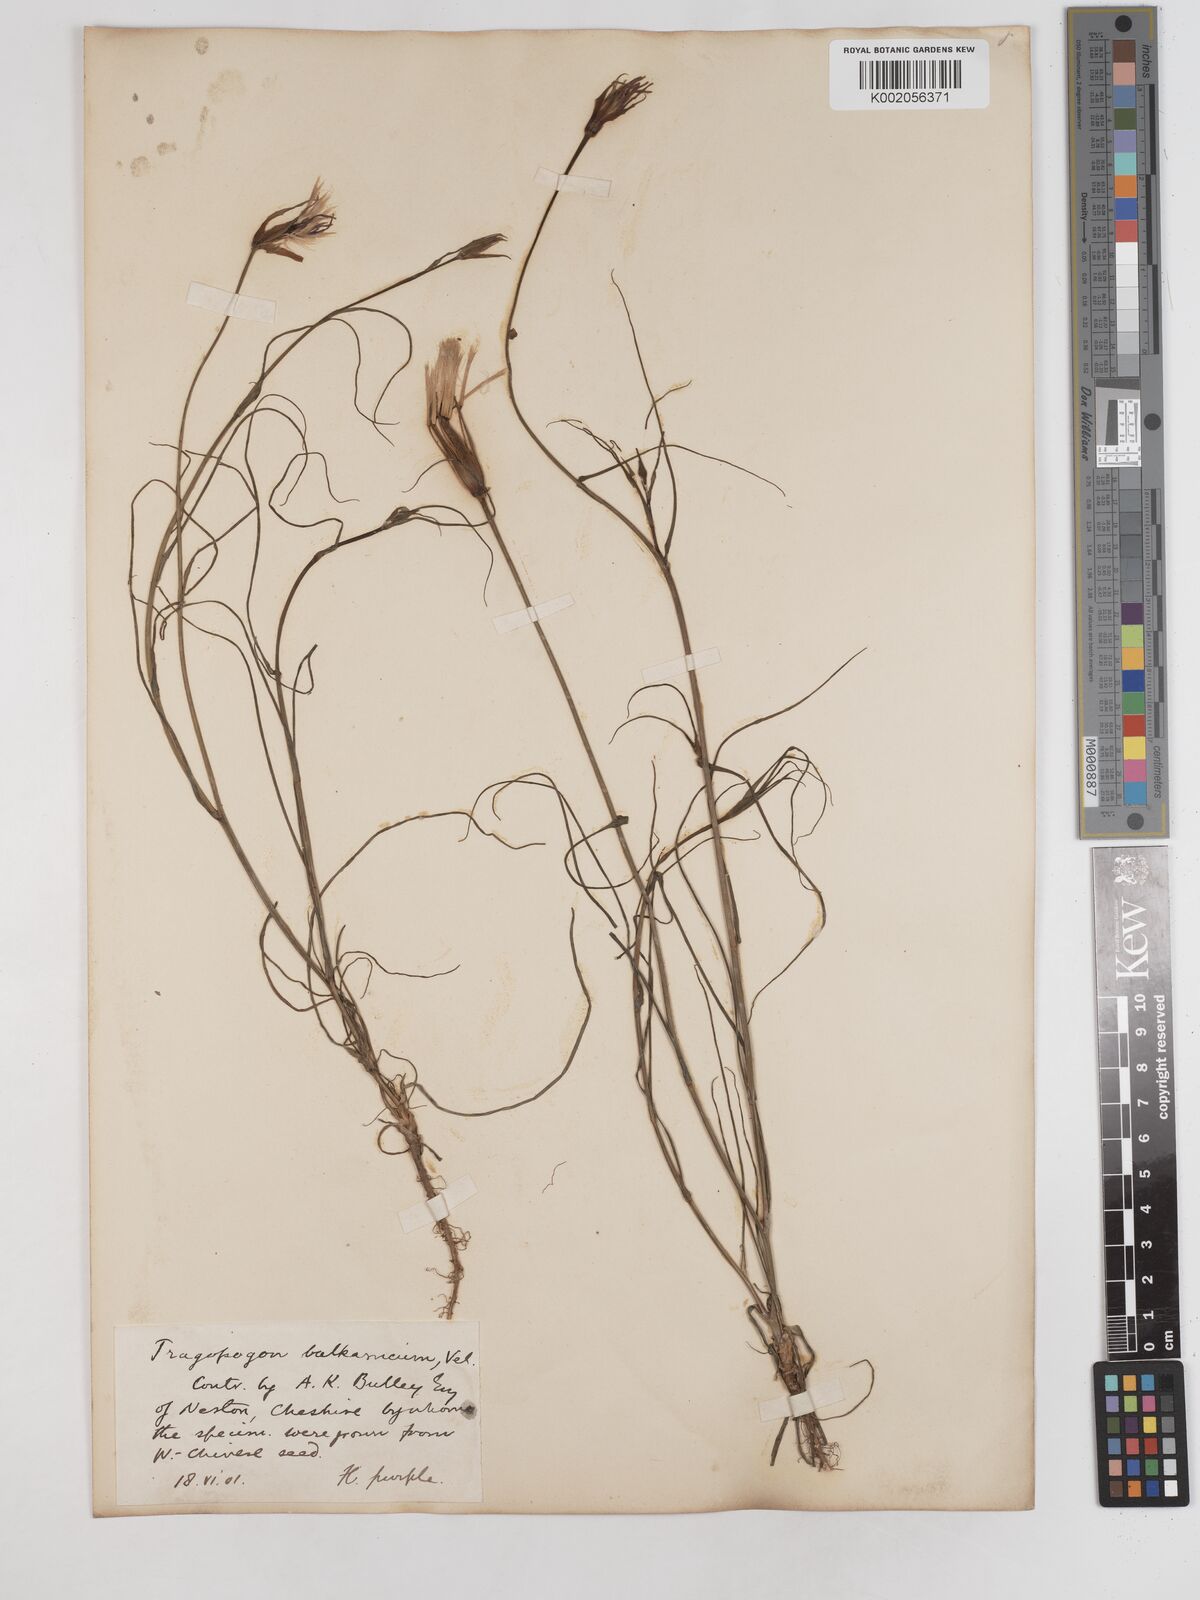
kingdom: Plantae
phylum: Tracheophyta
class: Magnoliopsida
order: Asterales
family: Asteraceae
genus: Tragopogon
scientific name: Tragopogon balcanicus
